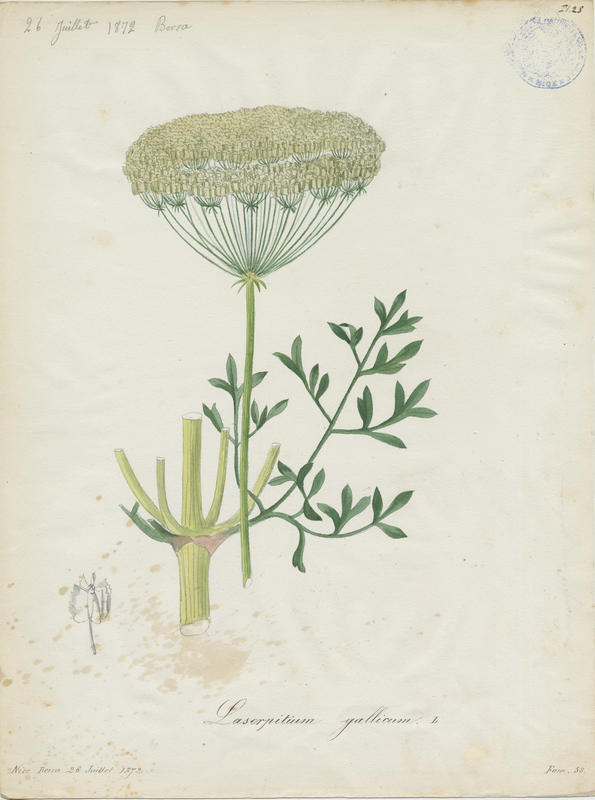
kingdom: Plantae
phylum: Tracheophyta
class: Magnoliopsida
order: Apiales
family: Apiaceae
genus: Laserpitium
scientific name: Laserpitium gallicum
